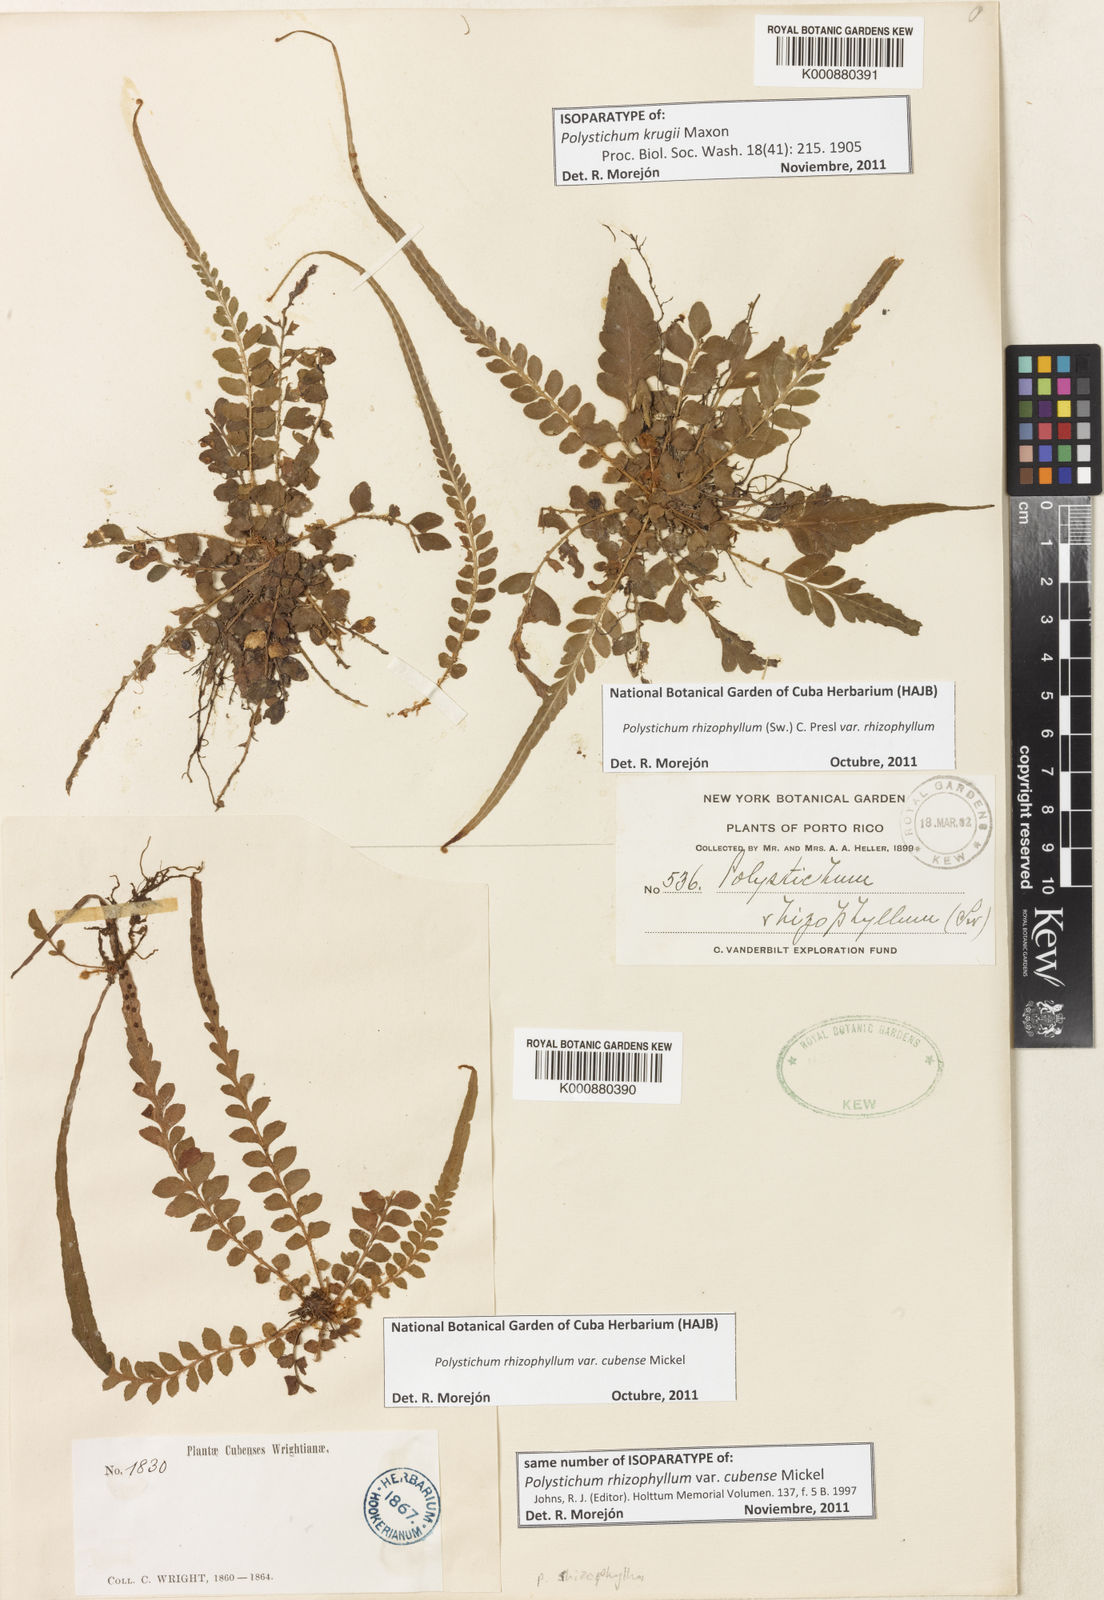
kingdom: Plantae
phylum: Tracheophyta
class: Polypodiopsida
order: Polypodiales
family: Dryopteridaceae
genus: Polystichum
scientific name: Polystichum rhizophyllum
